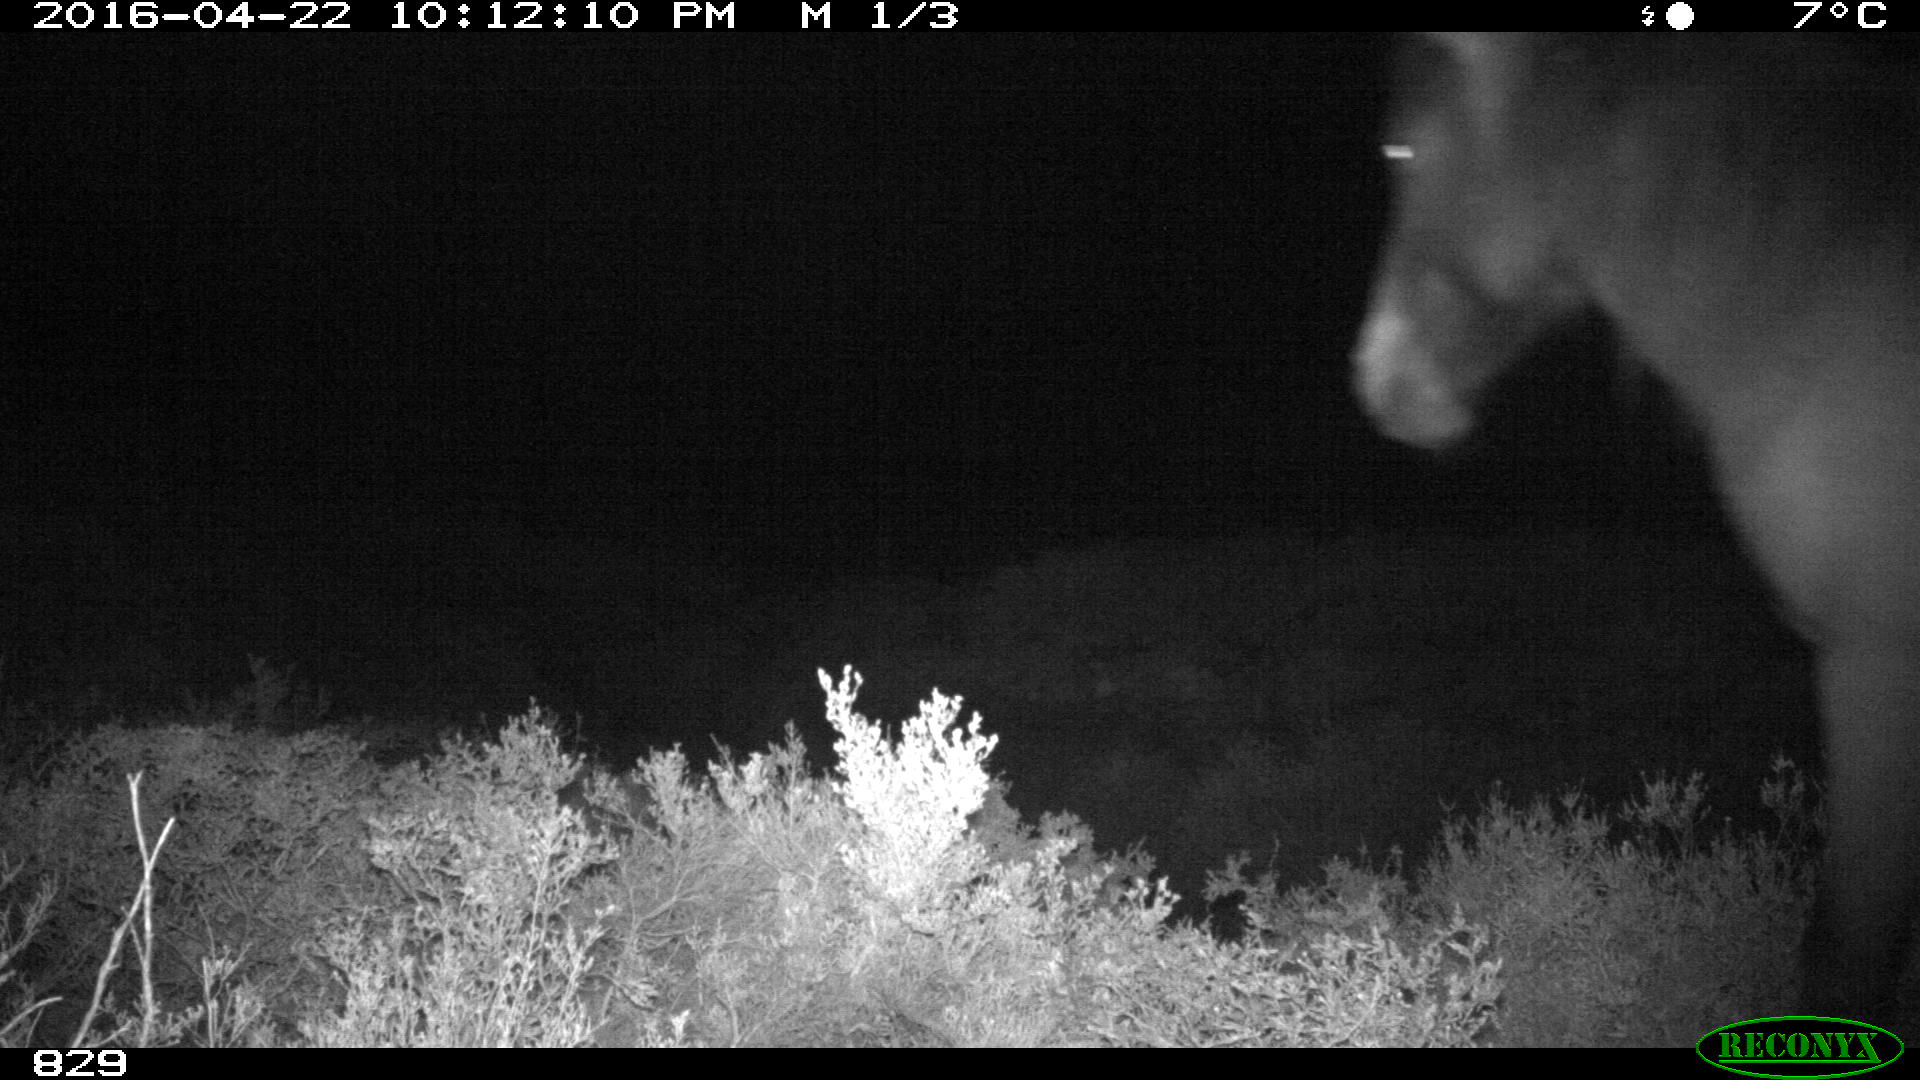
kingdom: Animalia
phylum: Chordata
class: Mammalia
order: Perissodactyla
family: Equidae
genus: Equus
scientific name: Equus caballus
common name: Horse
